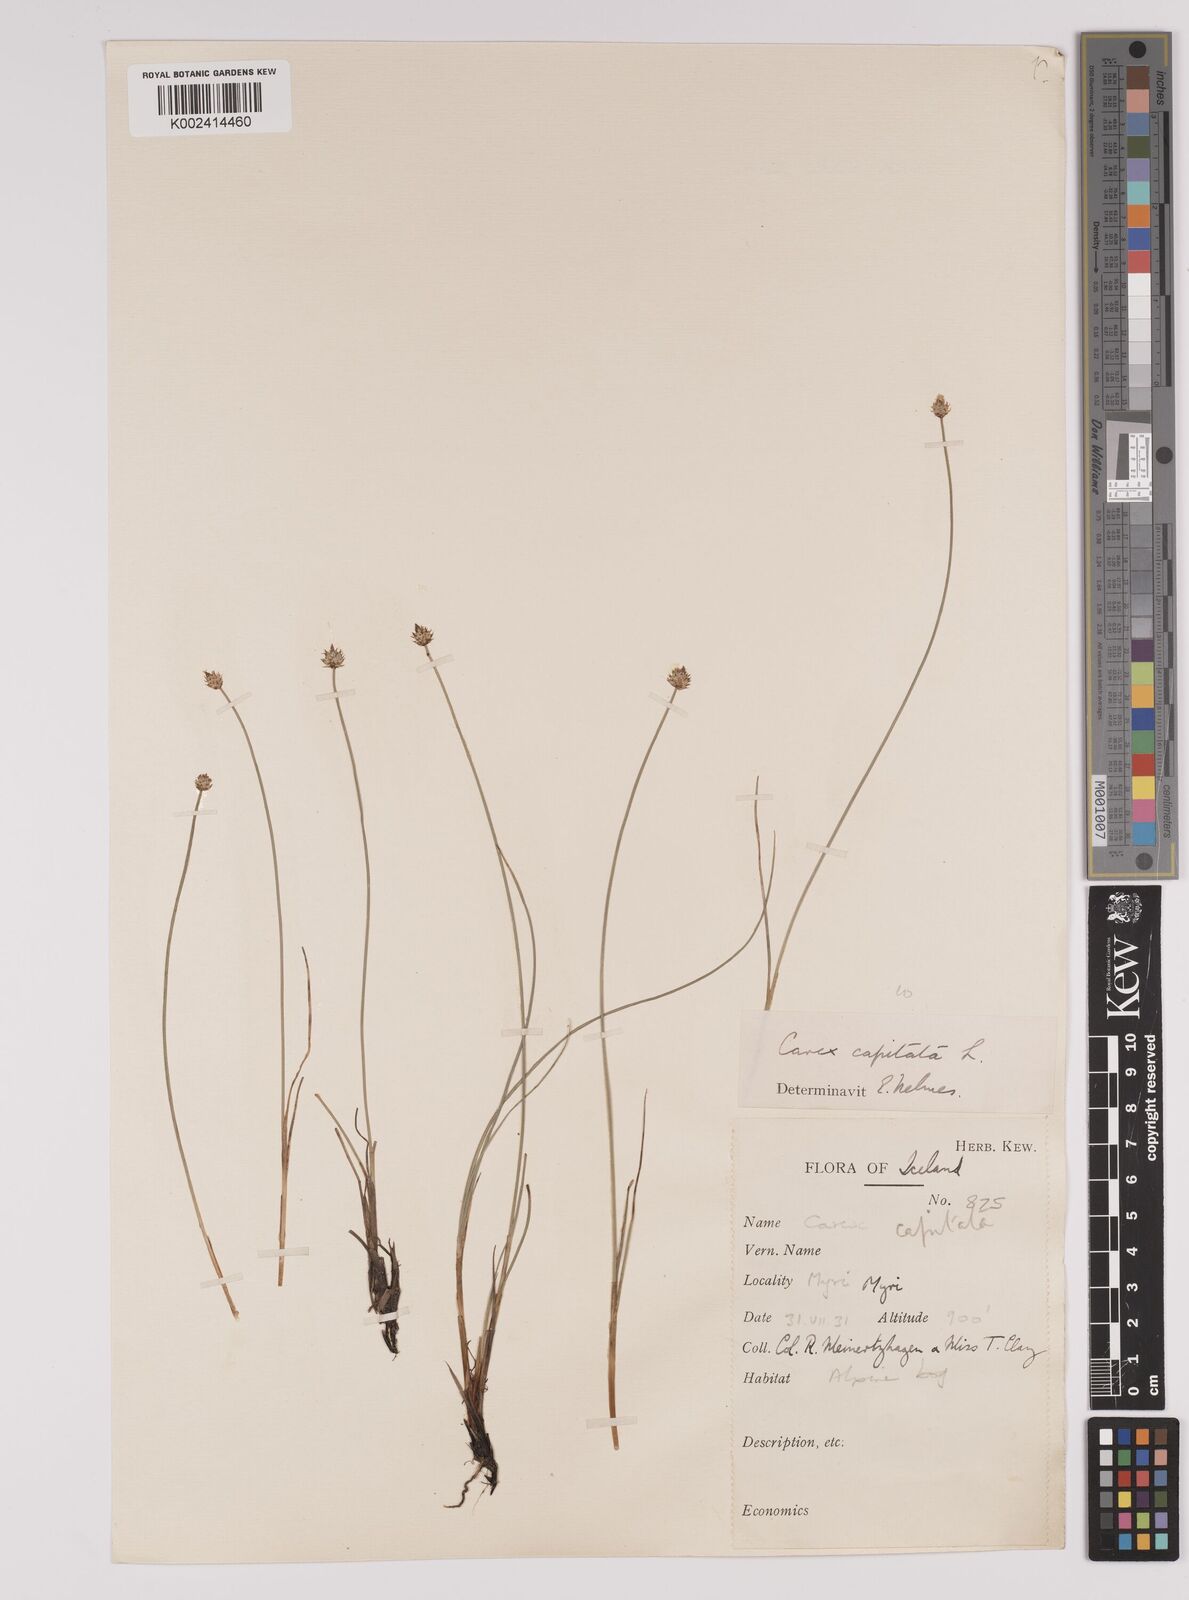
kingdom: Plantae
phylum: Tracheophyta
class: Liliopsida
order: Poales
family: Cyperaceae
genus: Carex
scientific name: Carex capitata
